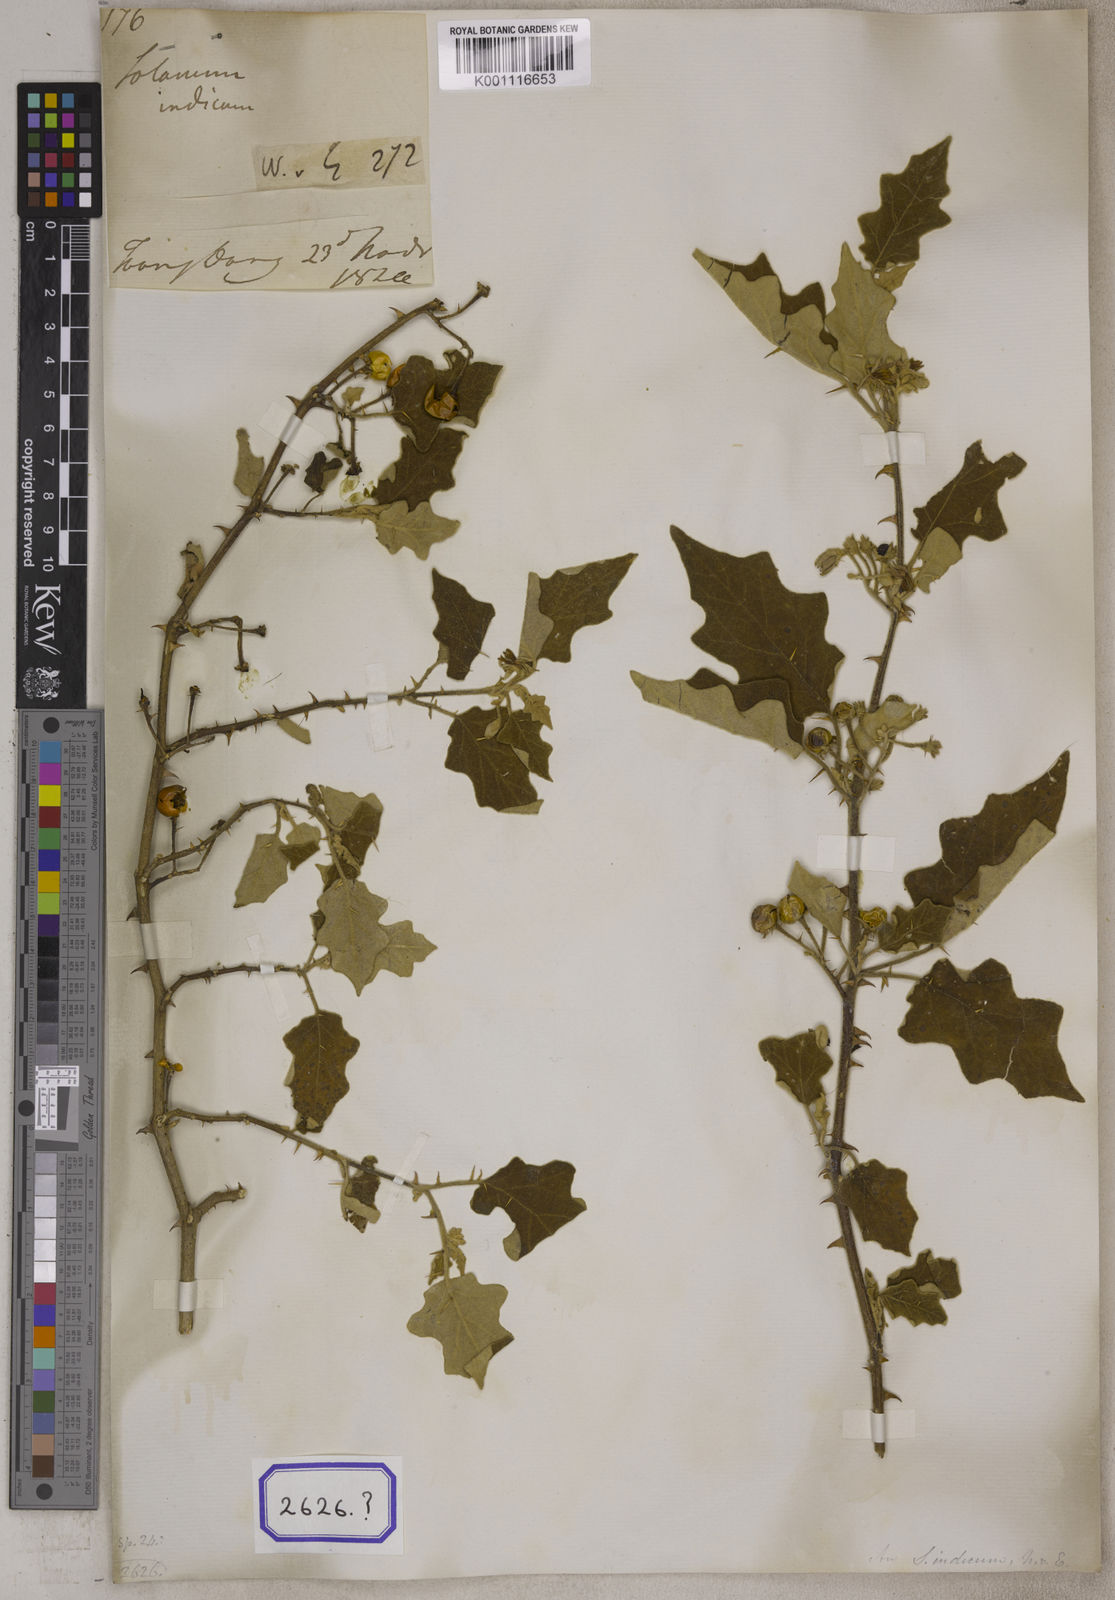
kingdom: Plantae
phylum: Tracheophyta
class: Magnoliopsida
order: Solanales
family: Solanaceae
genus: Solanum
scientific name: Solanum violaceum
